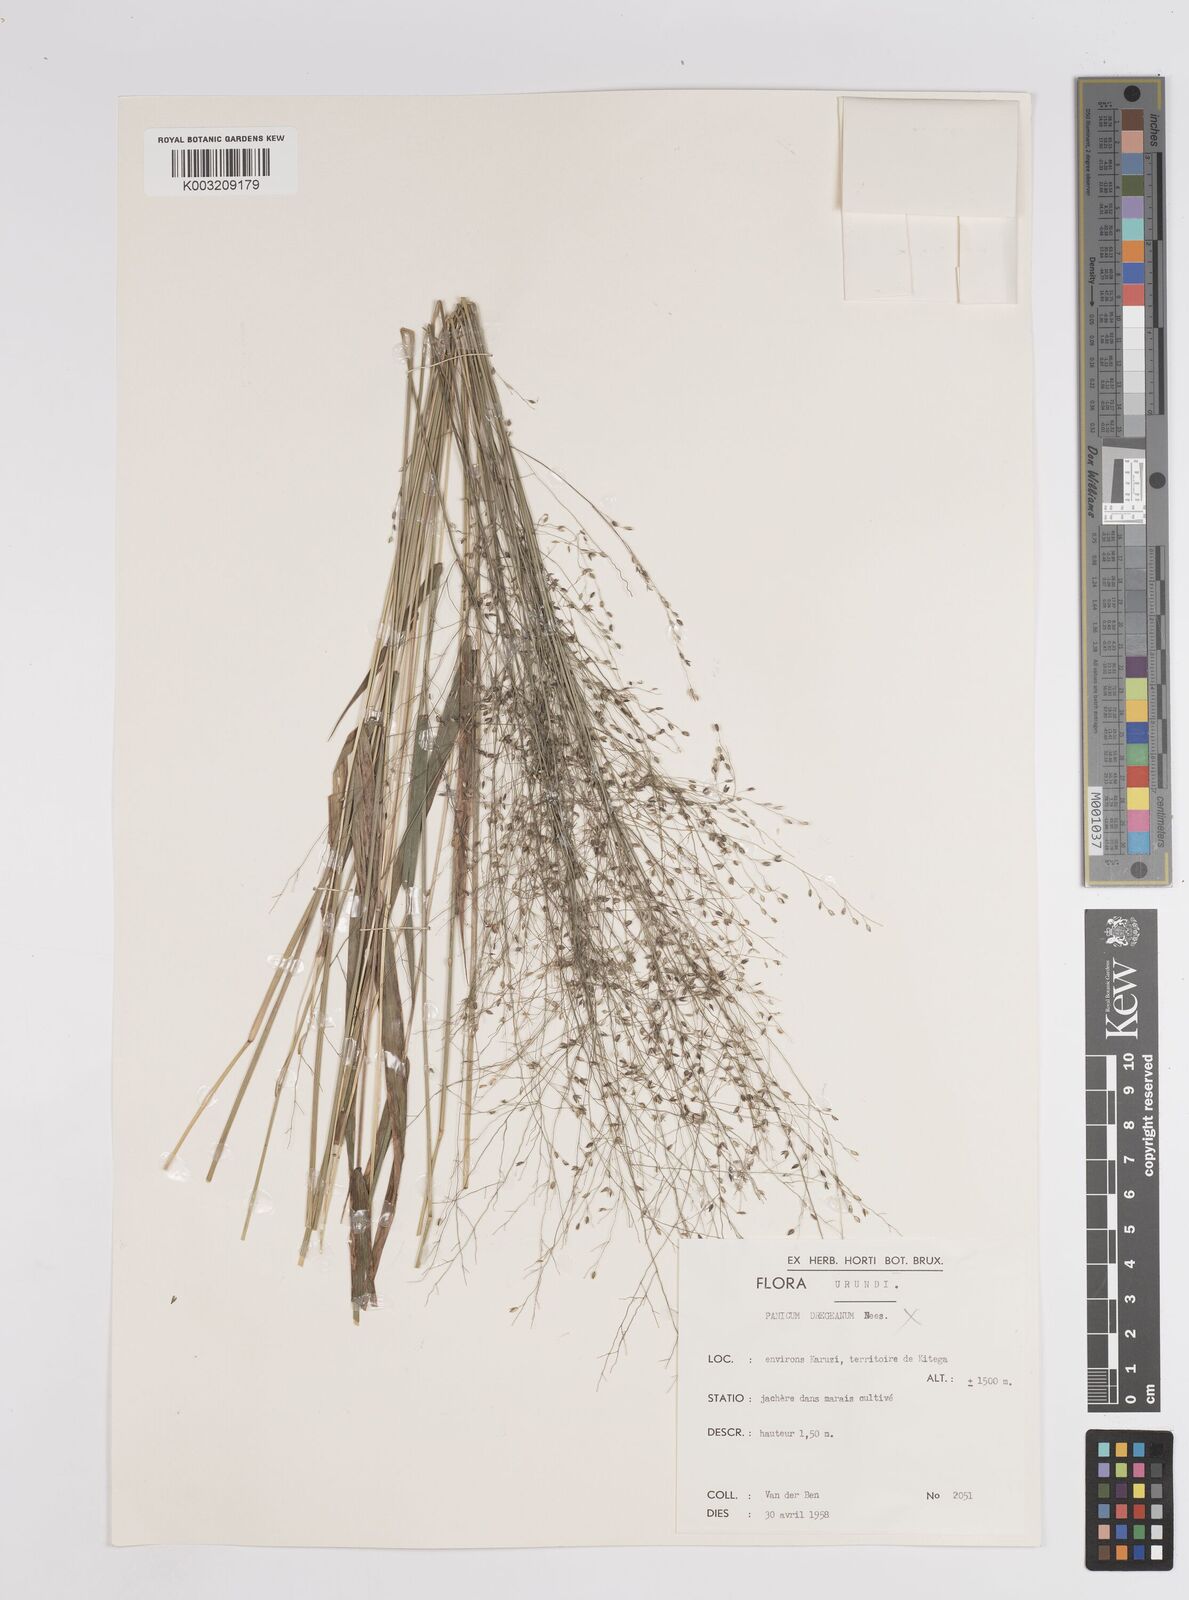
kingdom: Plantae
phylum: Tracheophyta
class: Liliopsida
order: Poales
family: Poaceae
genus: Panicum
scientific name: Panicum
